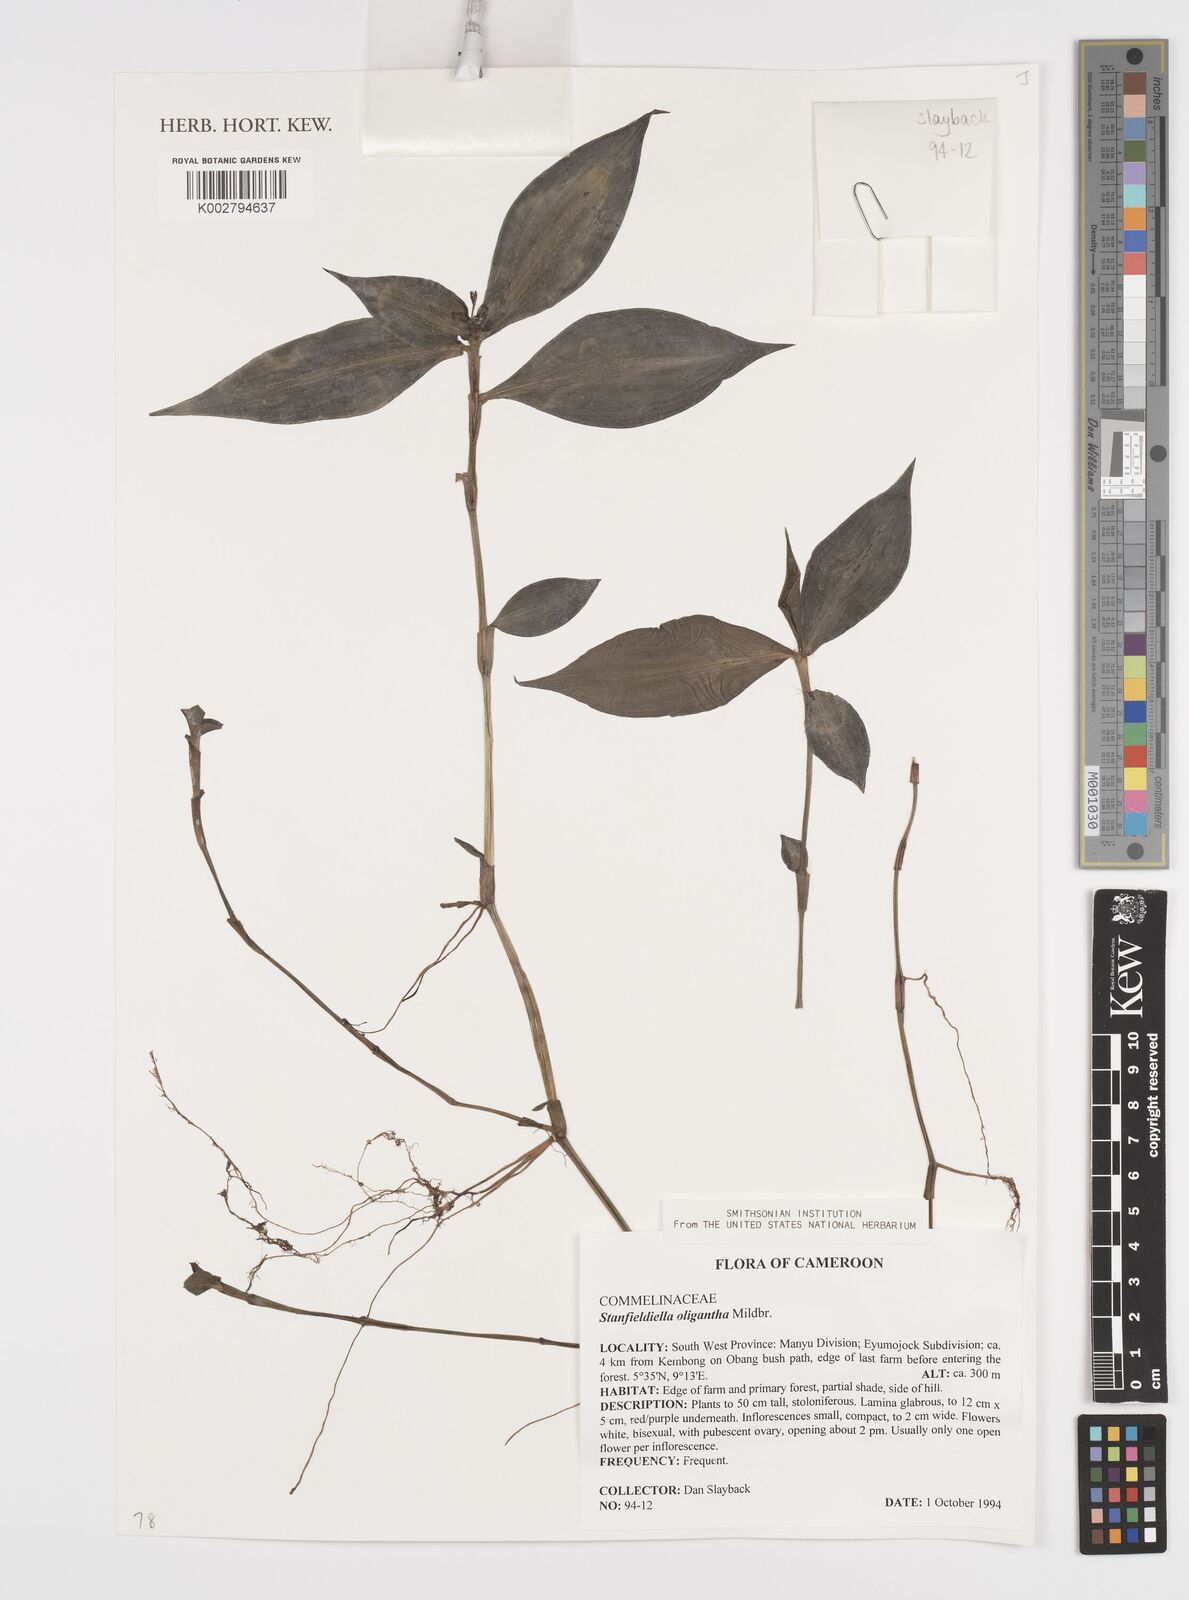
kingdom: Plantae
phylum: Tracheophyta
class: Liliopsida
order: Commelinales
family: Commelinaceae
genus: Stanfieldiella
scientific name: Stanfieldiella oligantha
